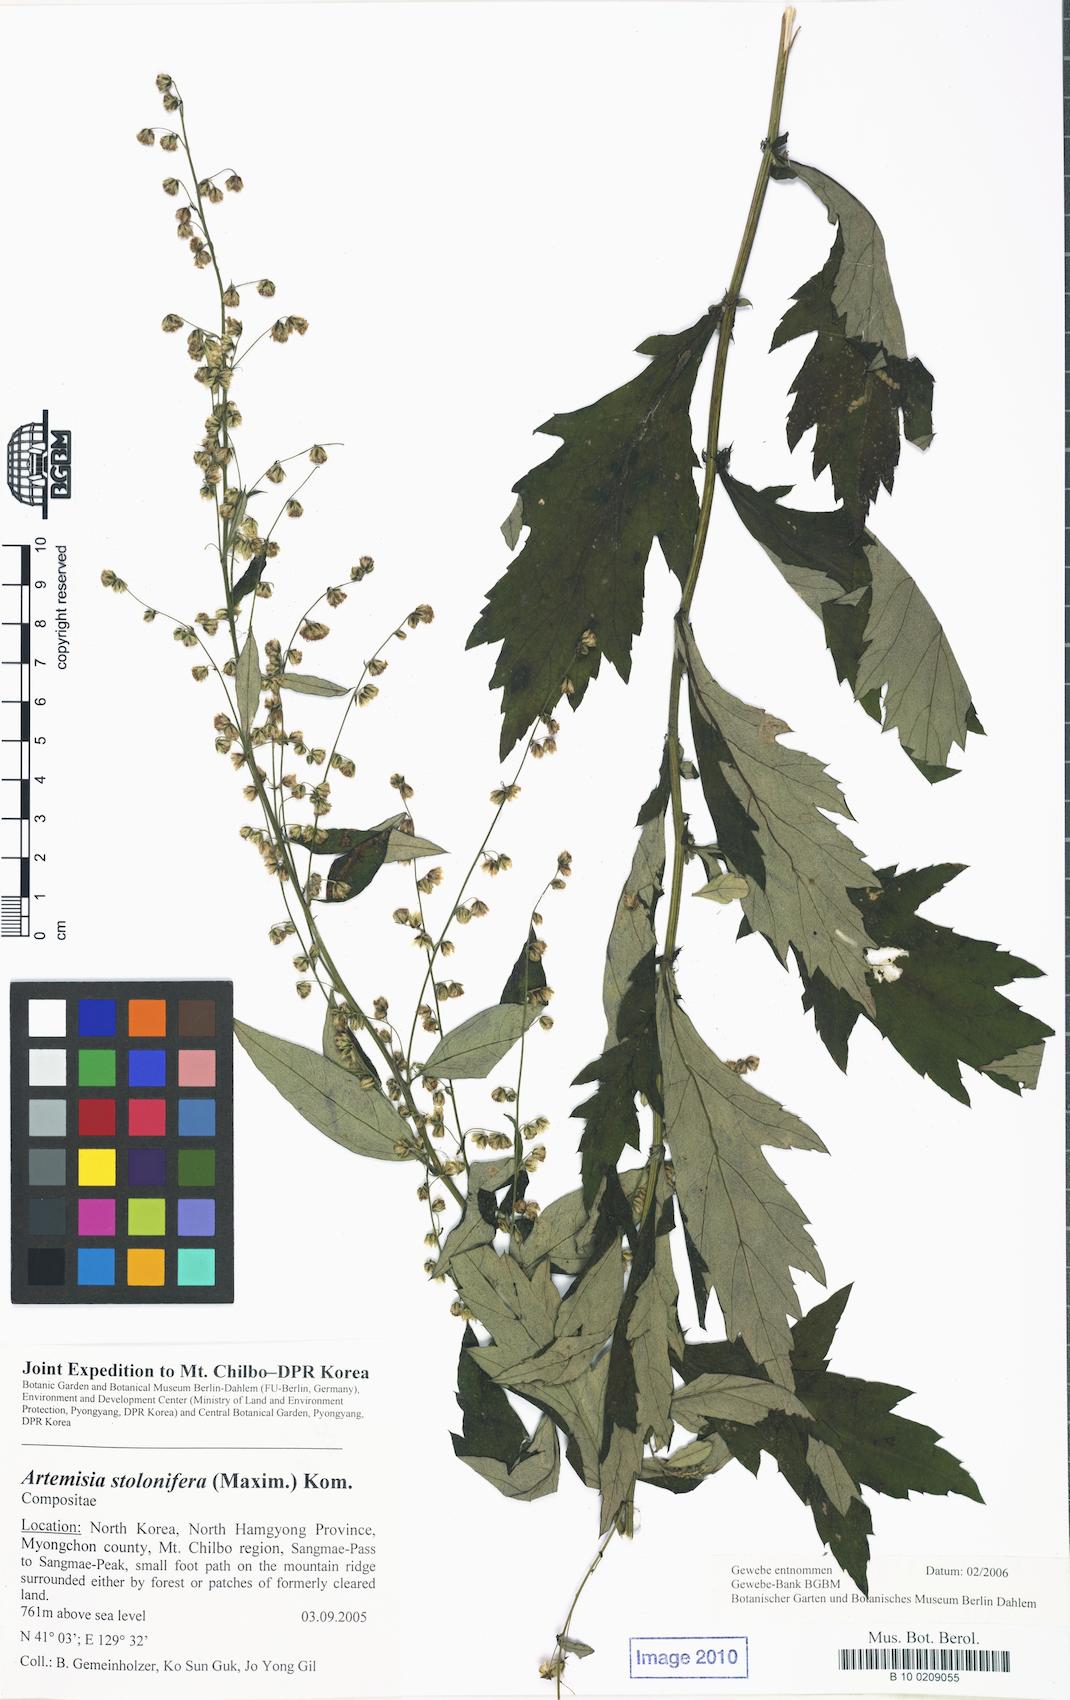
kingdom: Plantae
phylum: Tracheophyta
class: Magnoliopsida
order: Asterales
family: Asteraceae
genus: Artemisia
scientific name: Artemisia stolonifera
